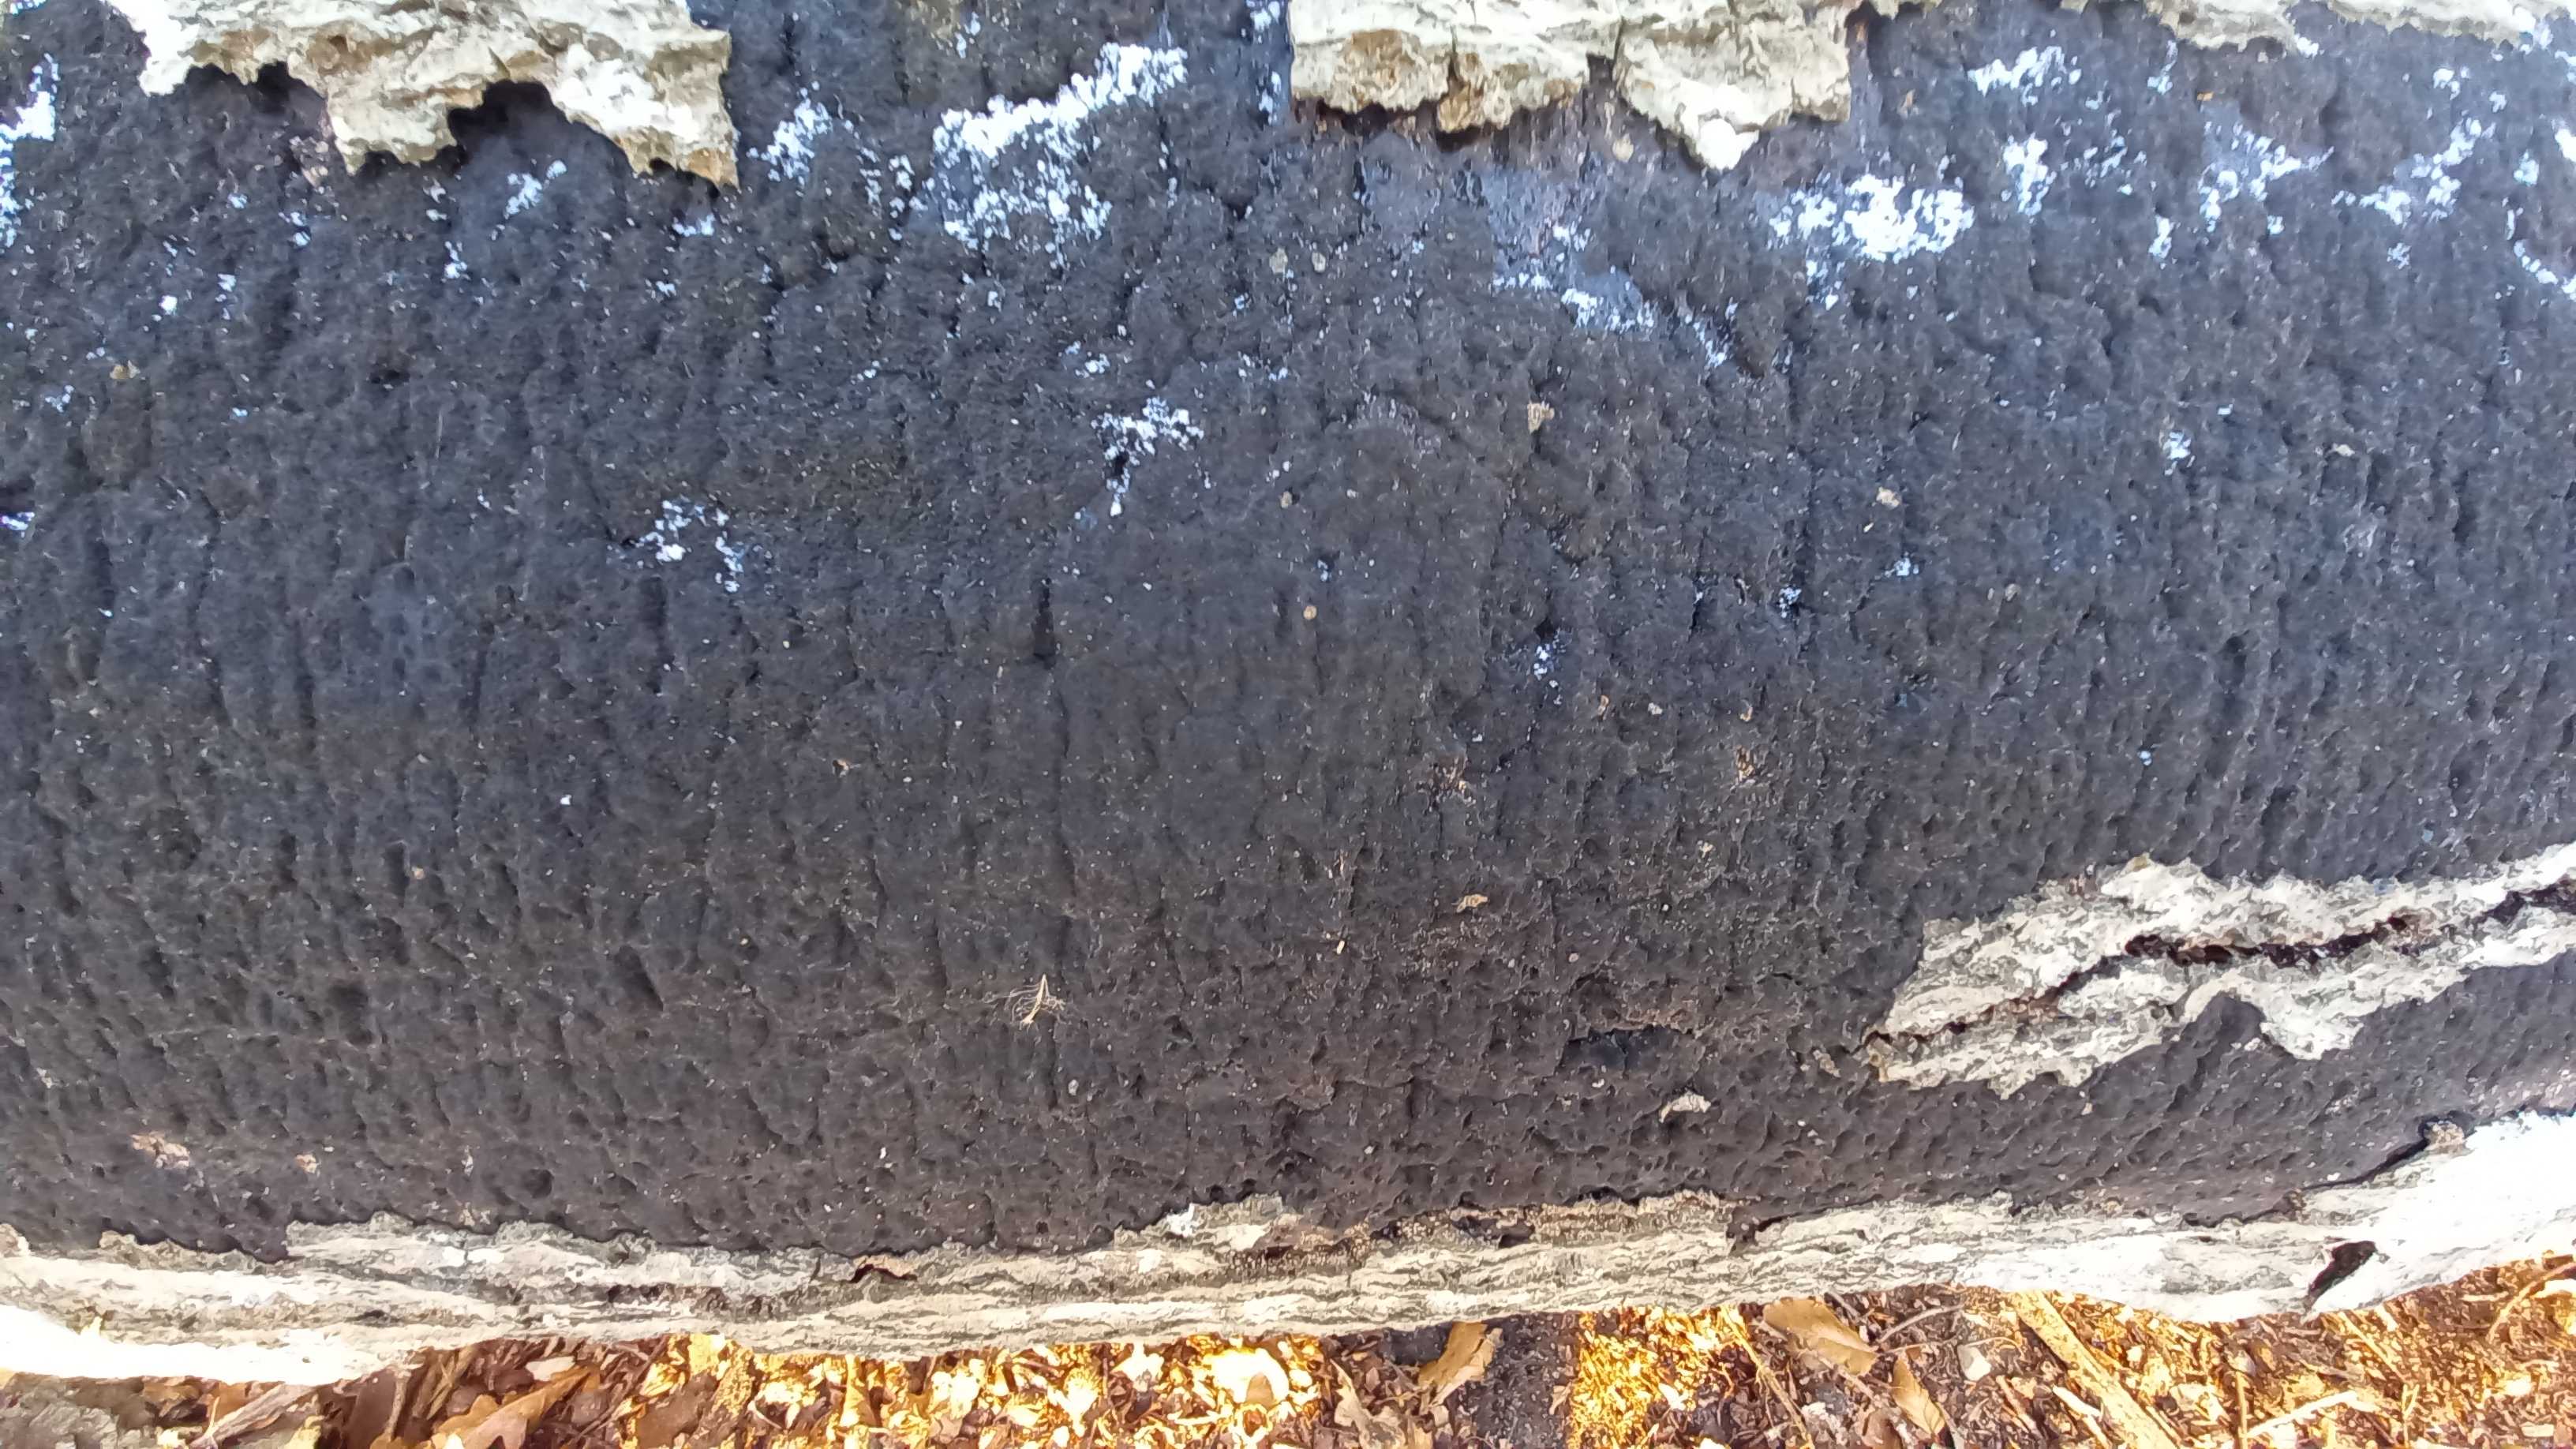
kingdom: Fungi
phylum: Ascomycota
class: Sordariomycetes
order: Xylariales
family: Diatrypaceae
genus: Eutypa
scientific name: Eutypa spinosa
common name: grov kulskorpe
